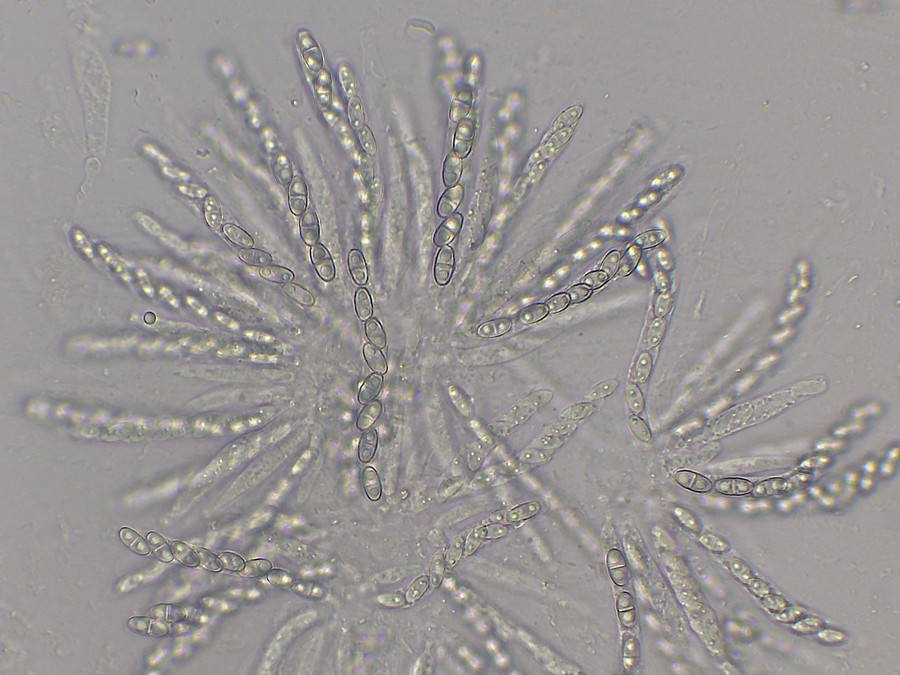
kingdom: Fungi
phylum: Ascomycota
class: Sordariomycetes
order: Hypocreales
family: Nectriaceae
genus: Hydropisphaera
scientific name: Hydropisphaera peziza
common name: skålformet gyldenkerne
